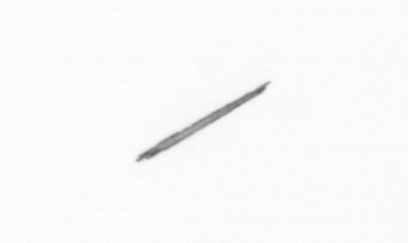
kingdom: Bacteria
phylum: Cyanobacteria
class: Cyanobacteriia
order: Cyanobacteriales
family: Microcoleaceae
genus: Trichodesmium
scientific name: Trichodesmium
